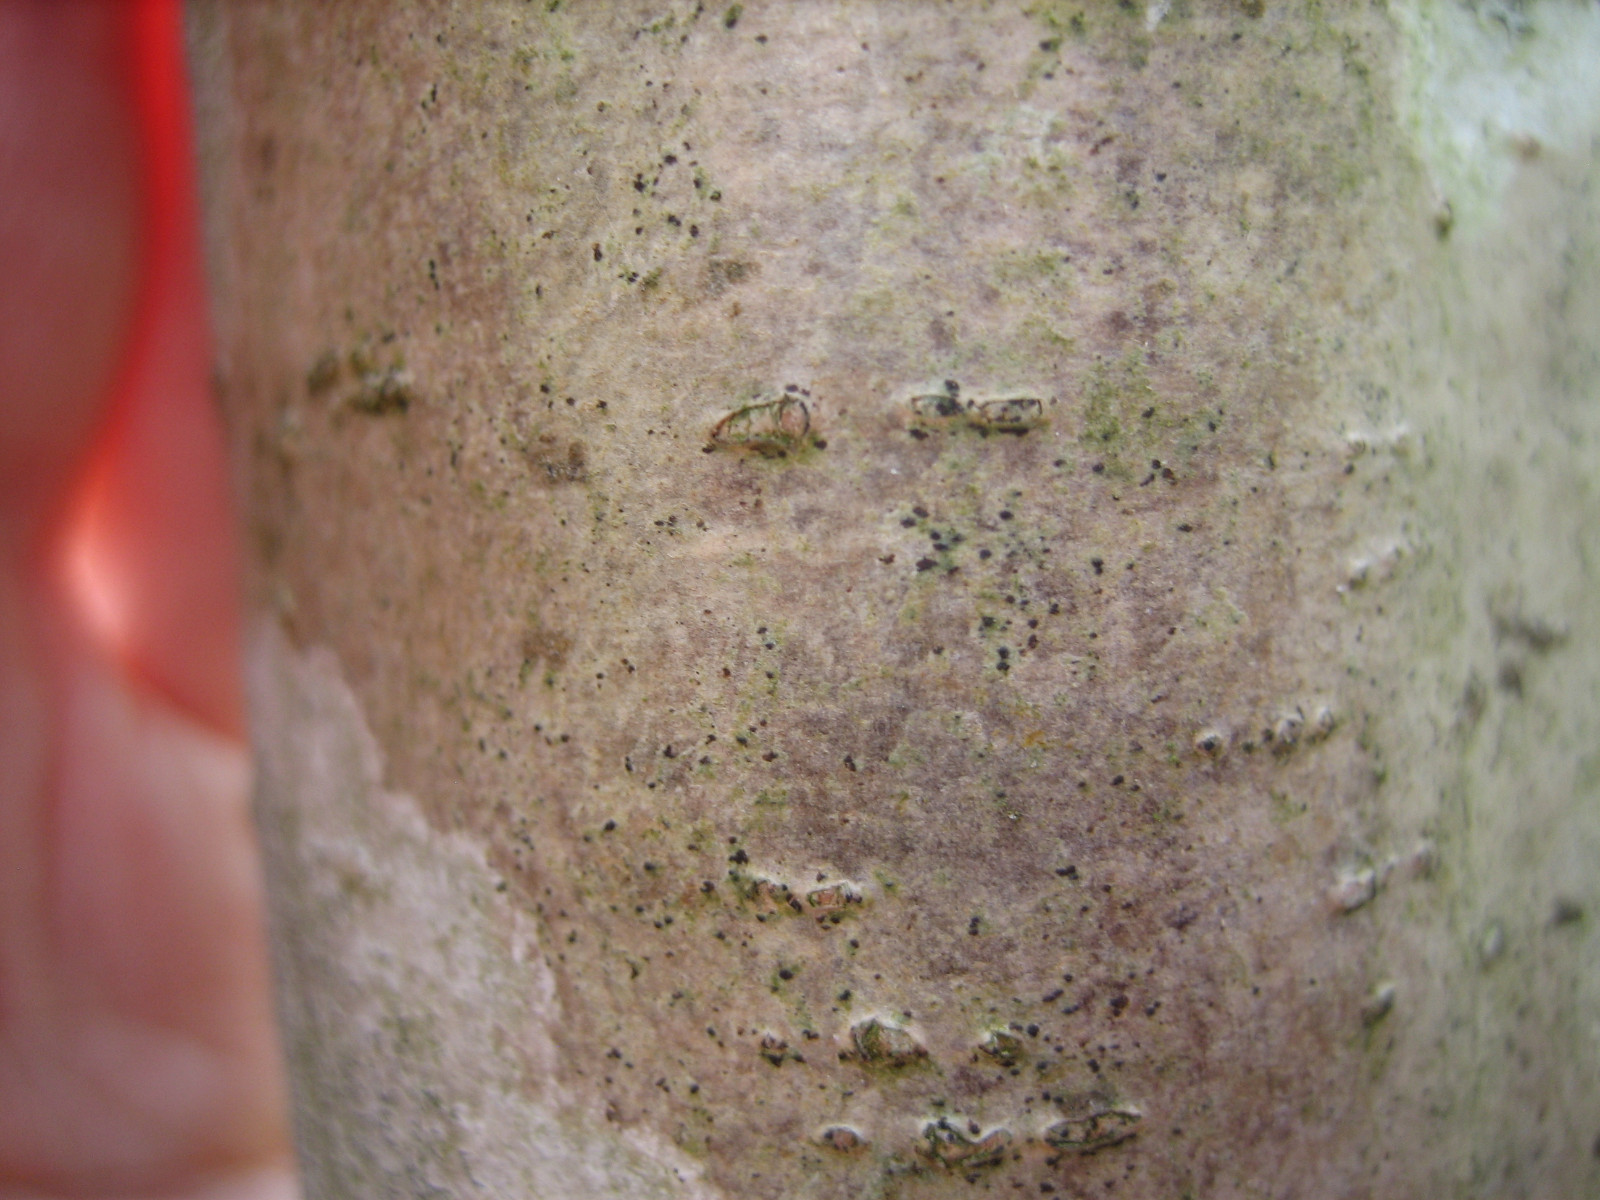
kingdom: Fungi
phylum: Ascomycota
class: Arthoniomycetes
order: Arthoniales
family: Arthoniaceae
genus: Arthonia
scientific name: Arthonia didyma
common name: oliven-pletlav
